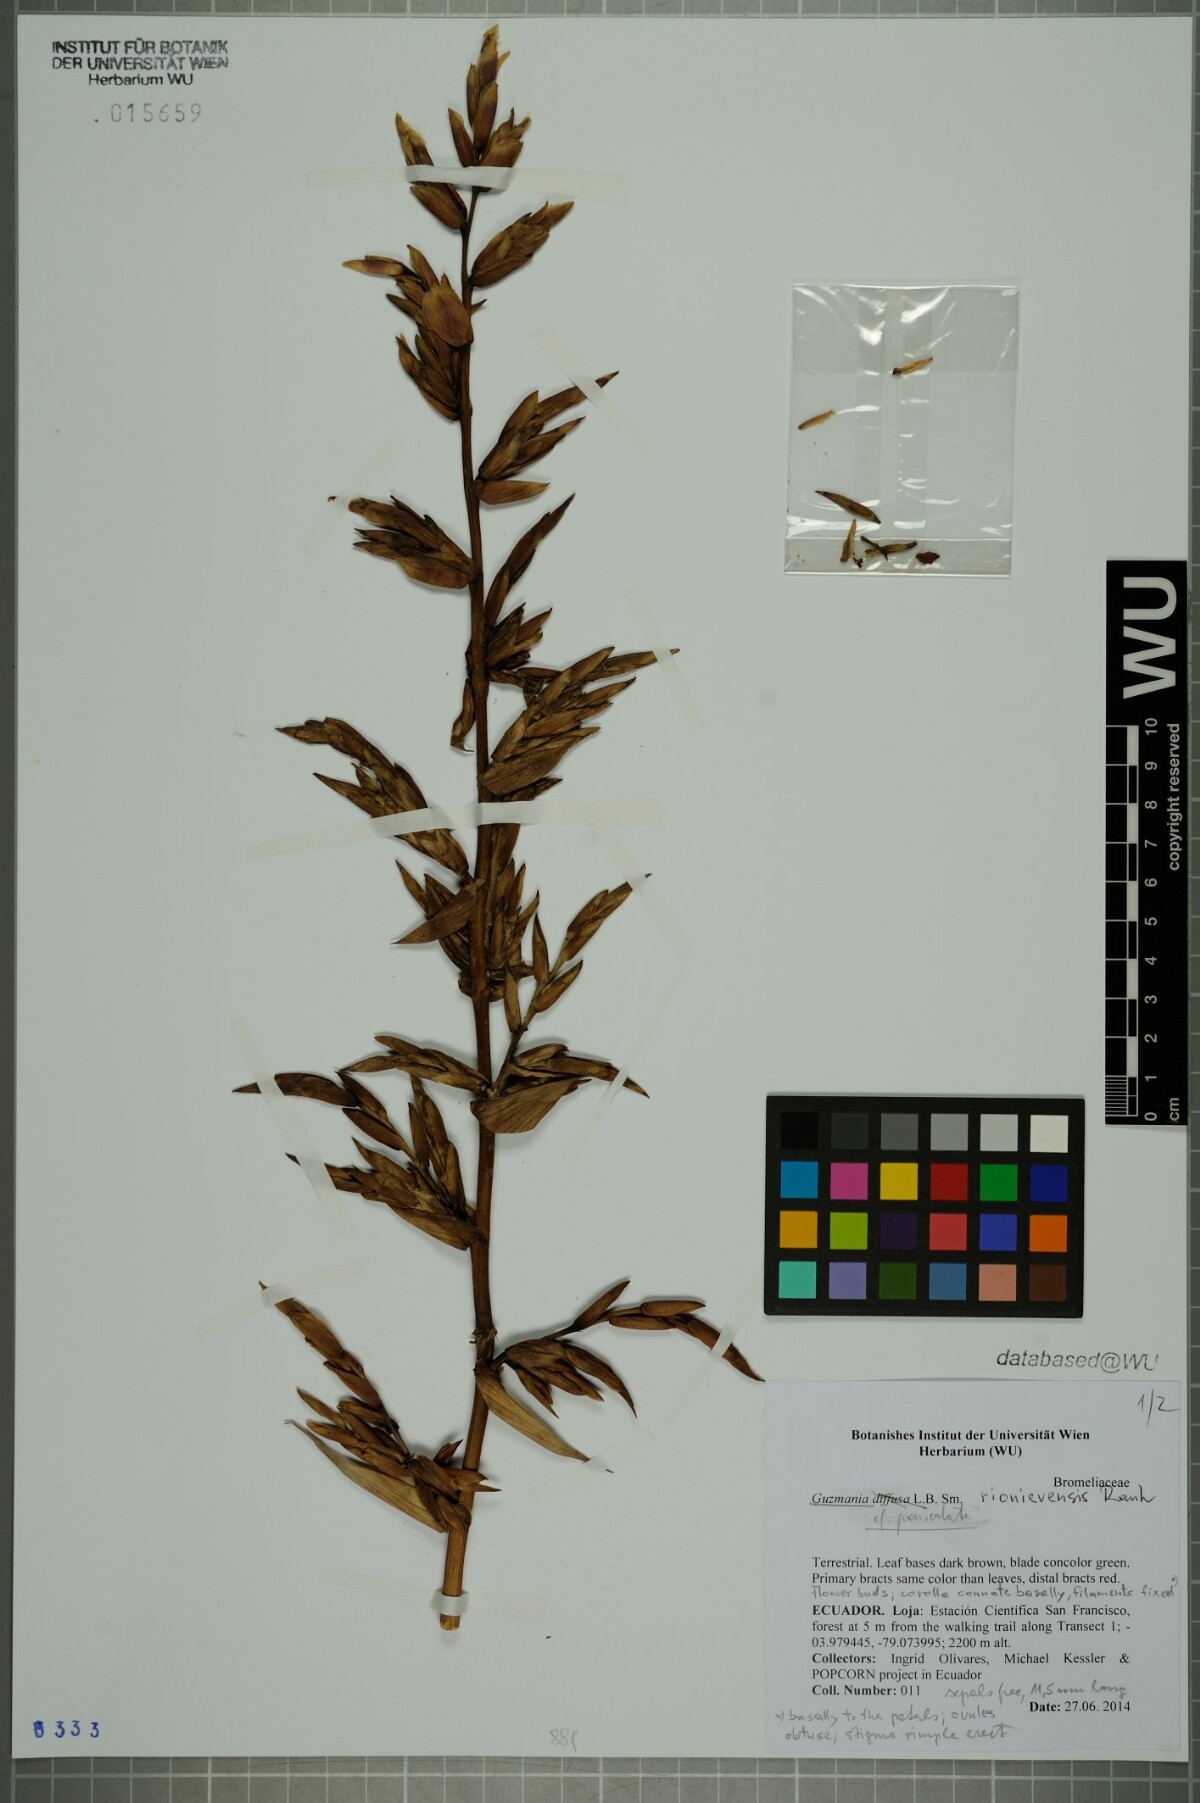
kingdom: Plantae
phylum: Tracheophyta
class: Liliopsida
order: Poales
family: Bromeliaceae
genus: Guzmania
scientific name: Guzmania marantoidea
